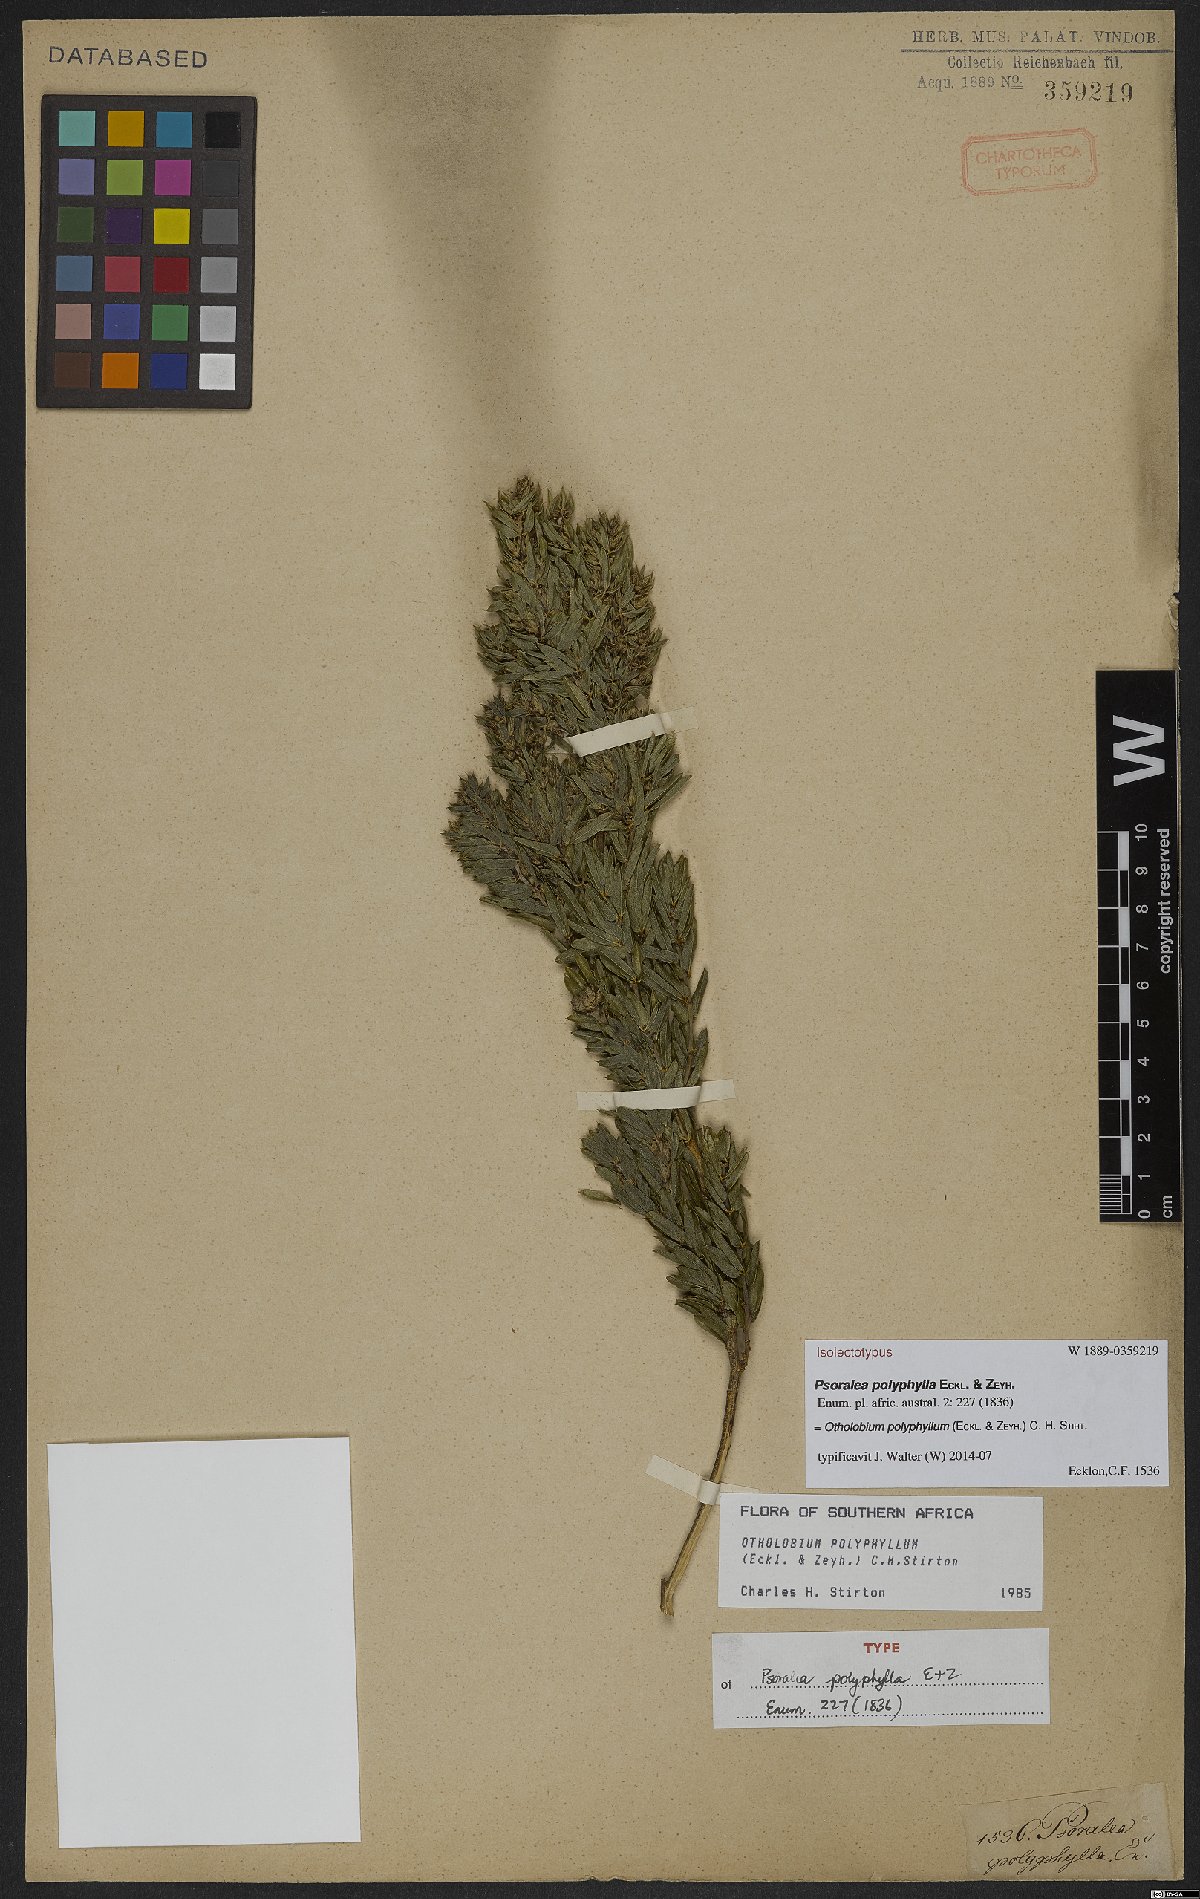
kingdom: Plantae
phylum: Tracheophyta
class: Magnoliopsida
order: Fabales
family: Fabaceae
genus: Psoralea
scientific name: Psoralea polyphylla
